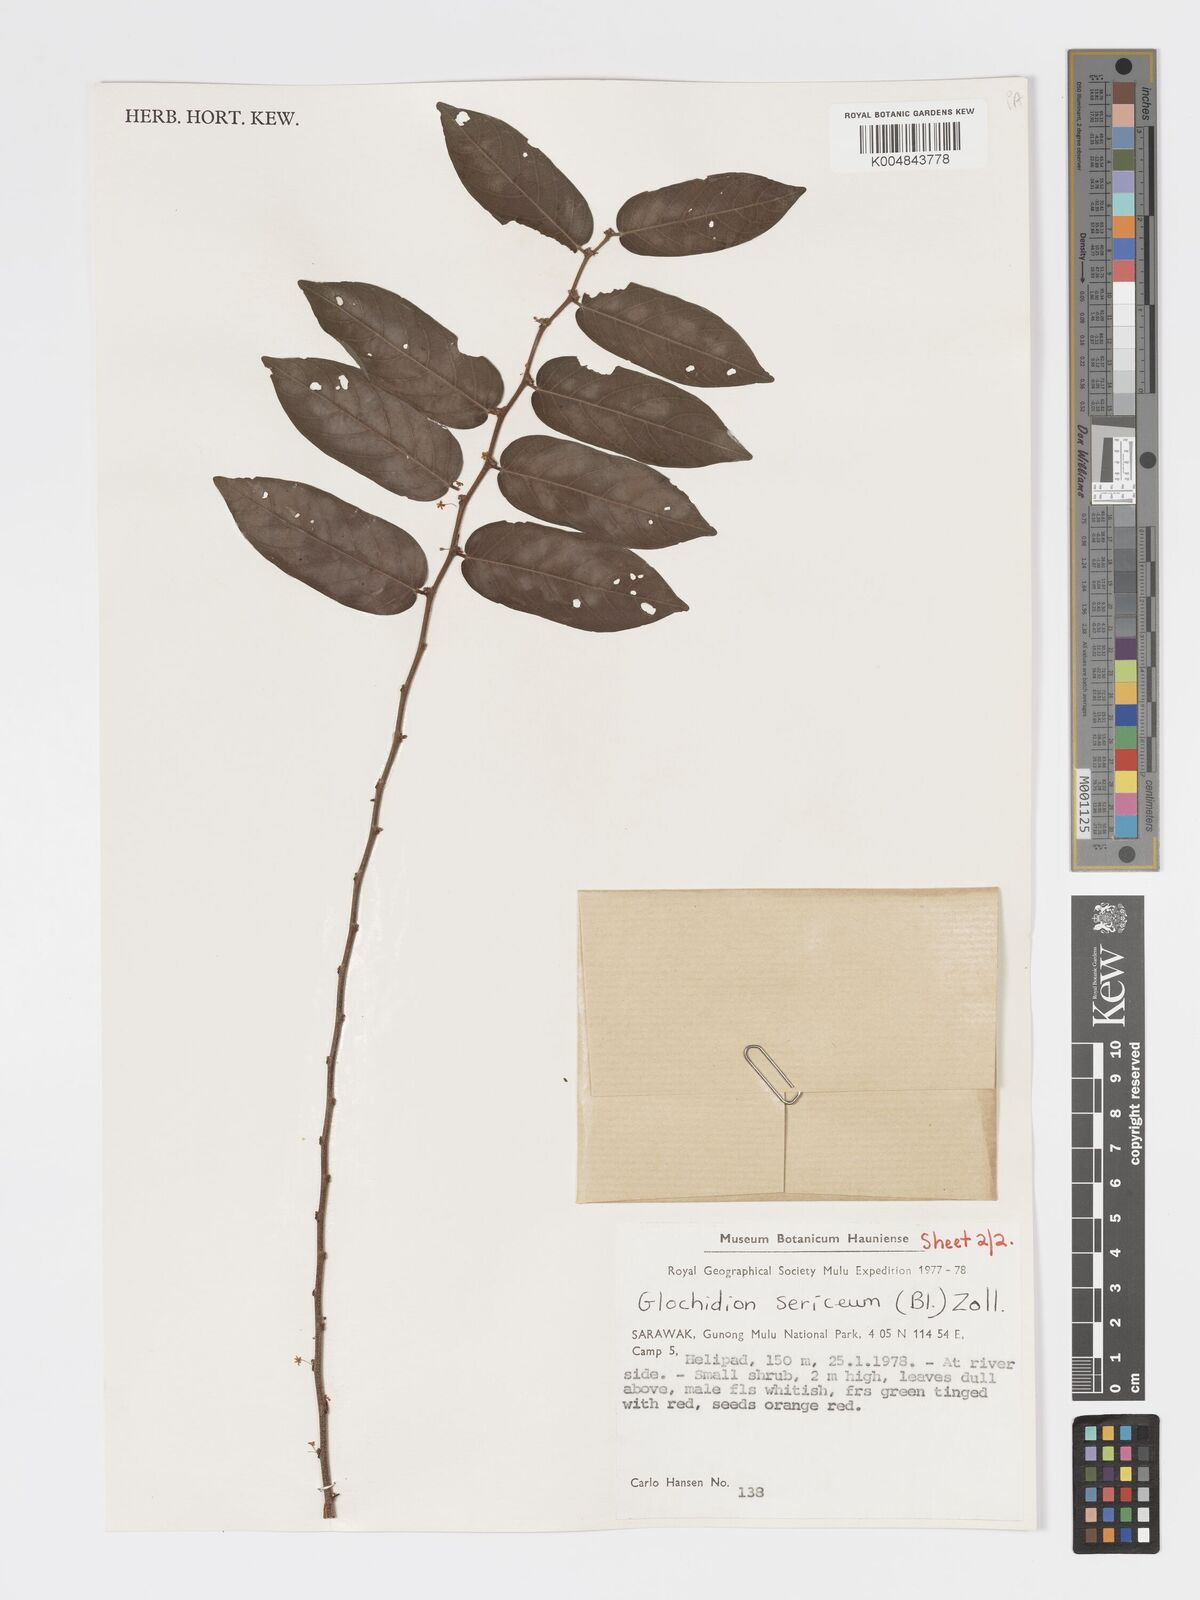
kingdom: Plantae
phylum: Tracheophyta
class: Magnoliopsida
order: Malpighiales
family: Phyllanthaceae
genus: Glochidion
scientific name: Glochidion sericeum
